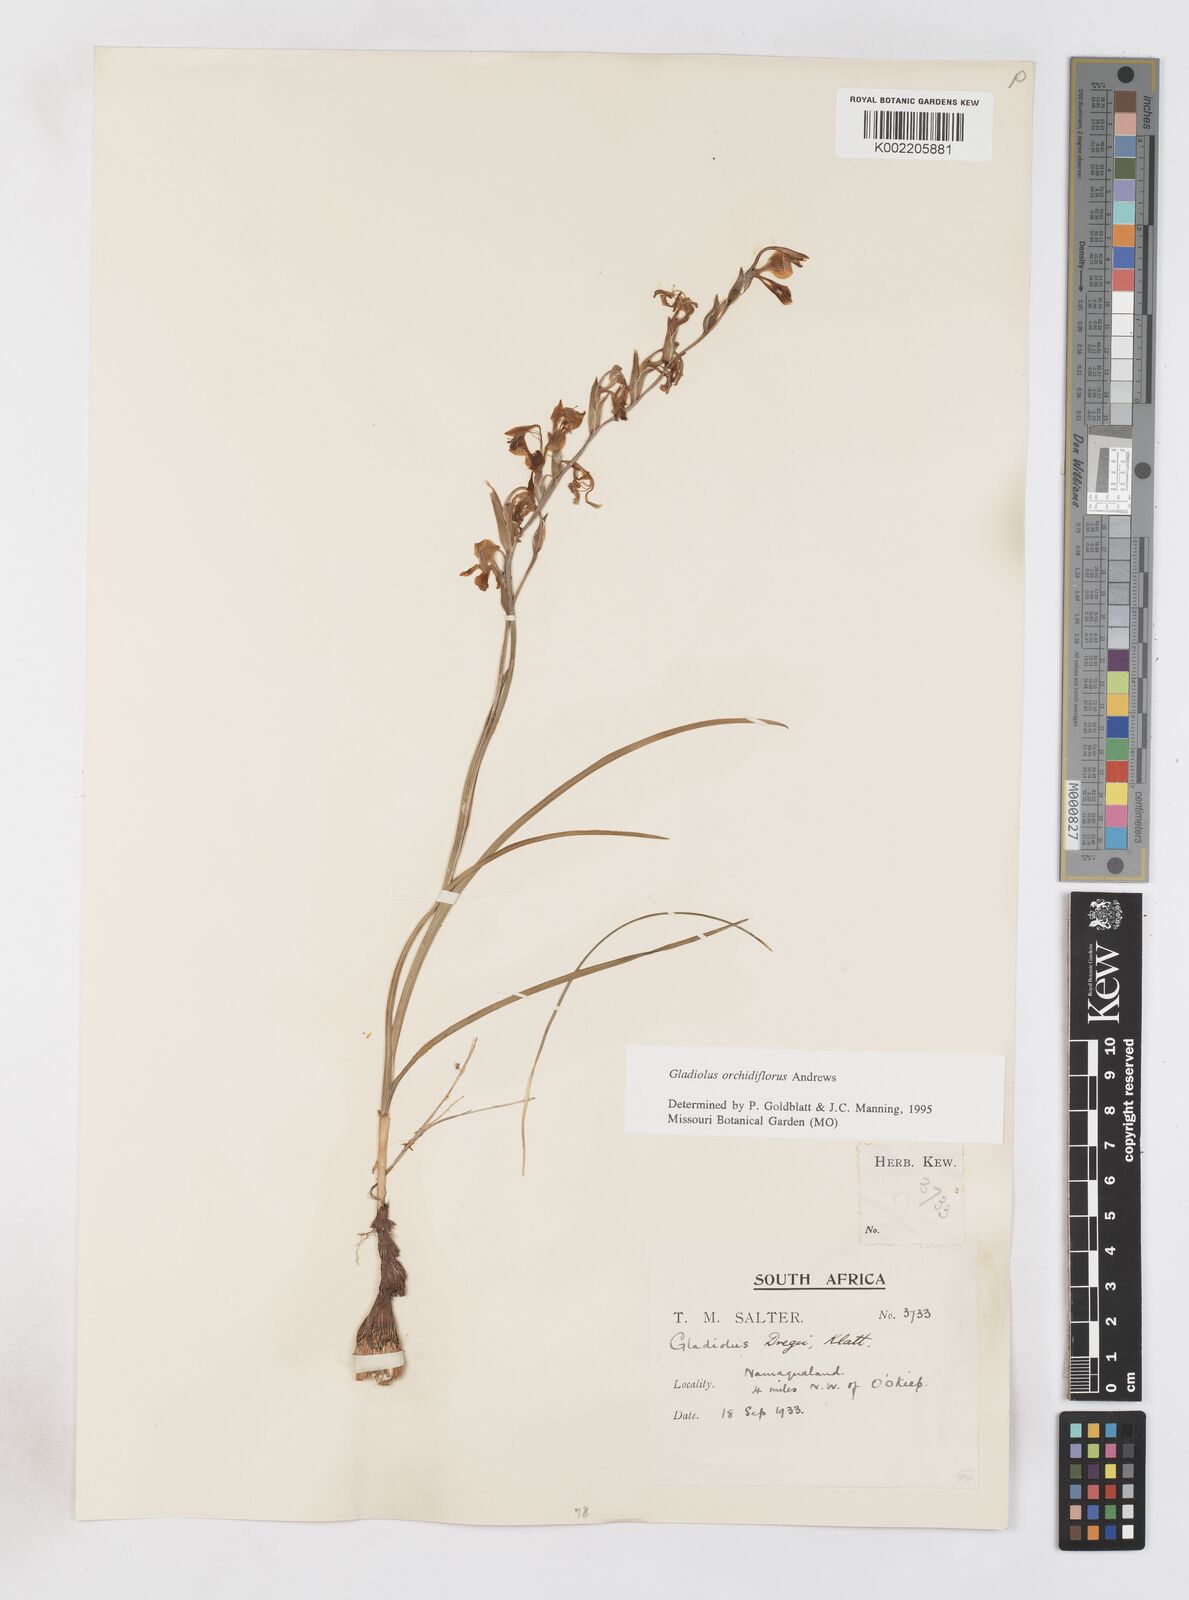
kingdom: Plantae
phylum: Tracheophyta
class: Liliopsida
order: Asparagales
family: Iridaceae
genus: Gladiolus
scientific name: Gladiolus orchidiflorus
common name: Gray kalkoentjie
